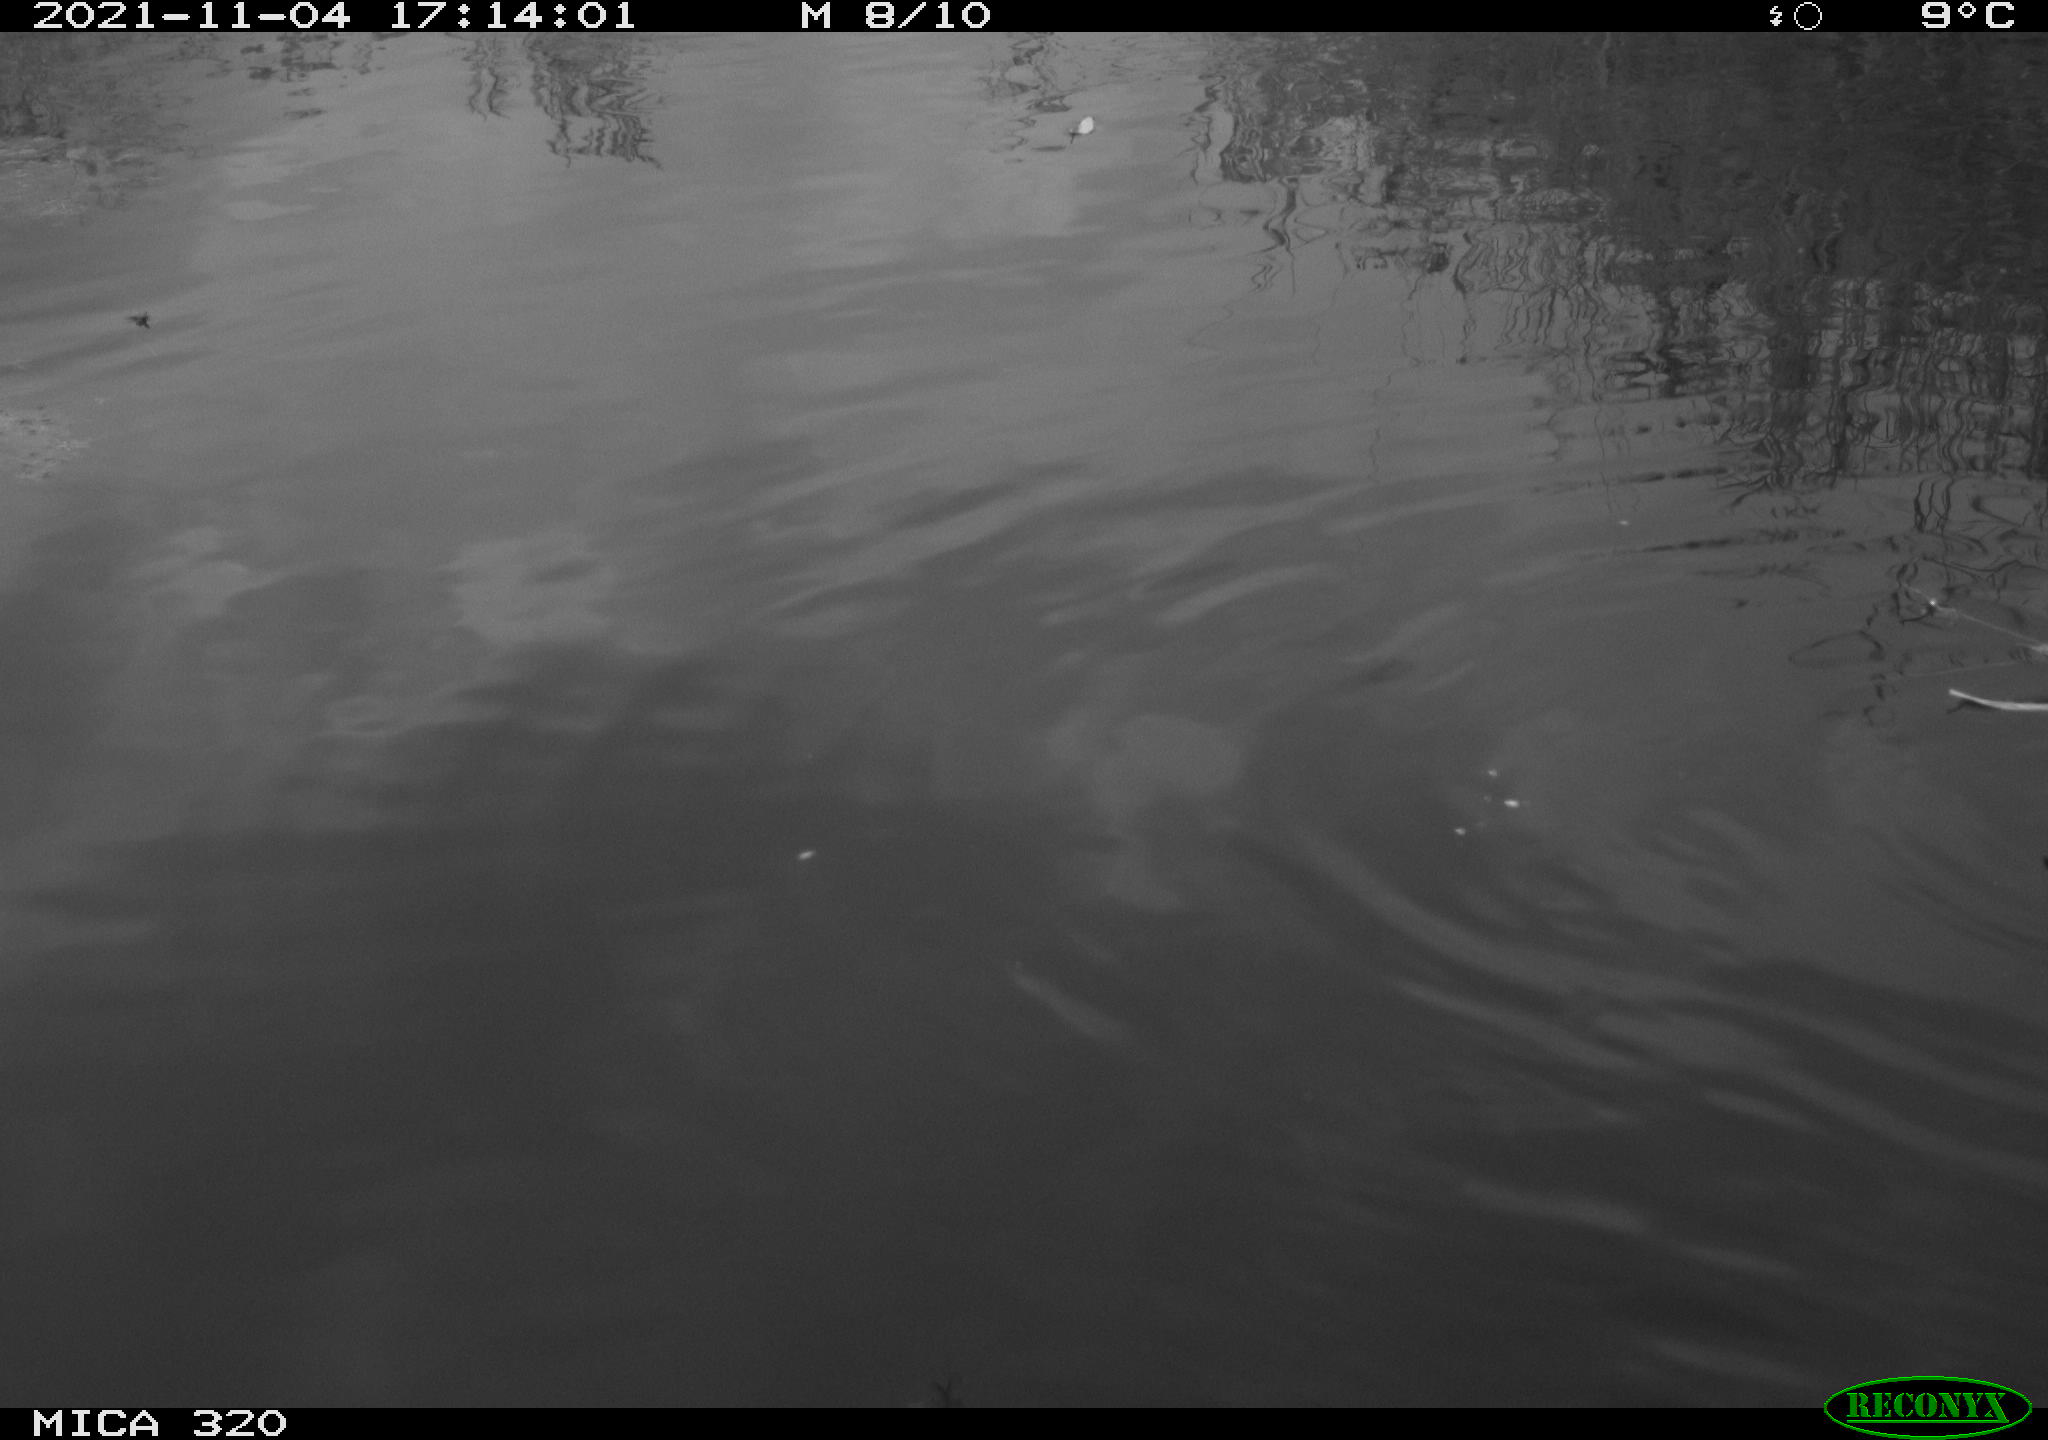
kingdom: Animalia
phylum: Chordata
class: Aves
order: Gruiformes
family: Rallidae
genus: Gallinula
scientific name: Gallinula chloropus
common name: Common moorhen
